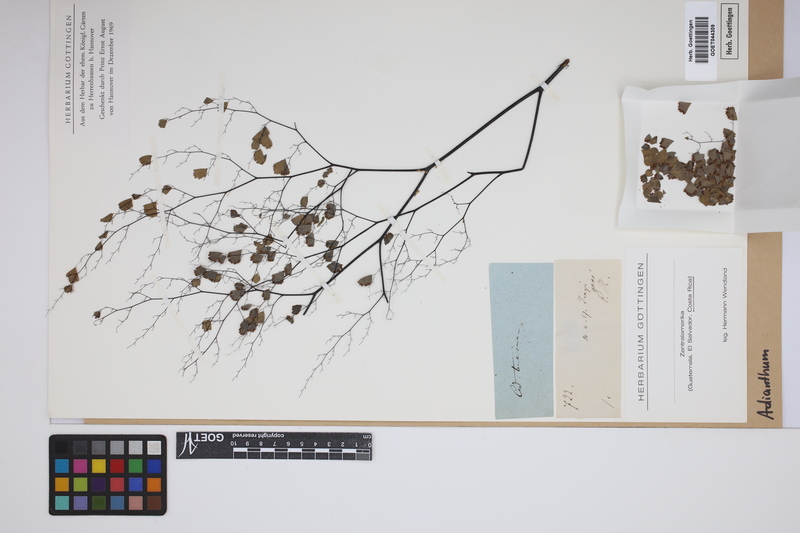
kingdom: Plantae
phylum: Tracheophyta
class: Polypodiopsida
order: Polypodiales
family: Pteridaceae
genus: Adiantum
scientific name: Adiantum
